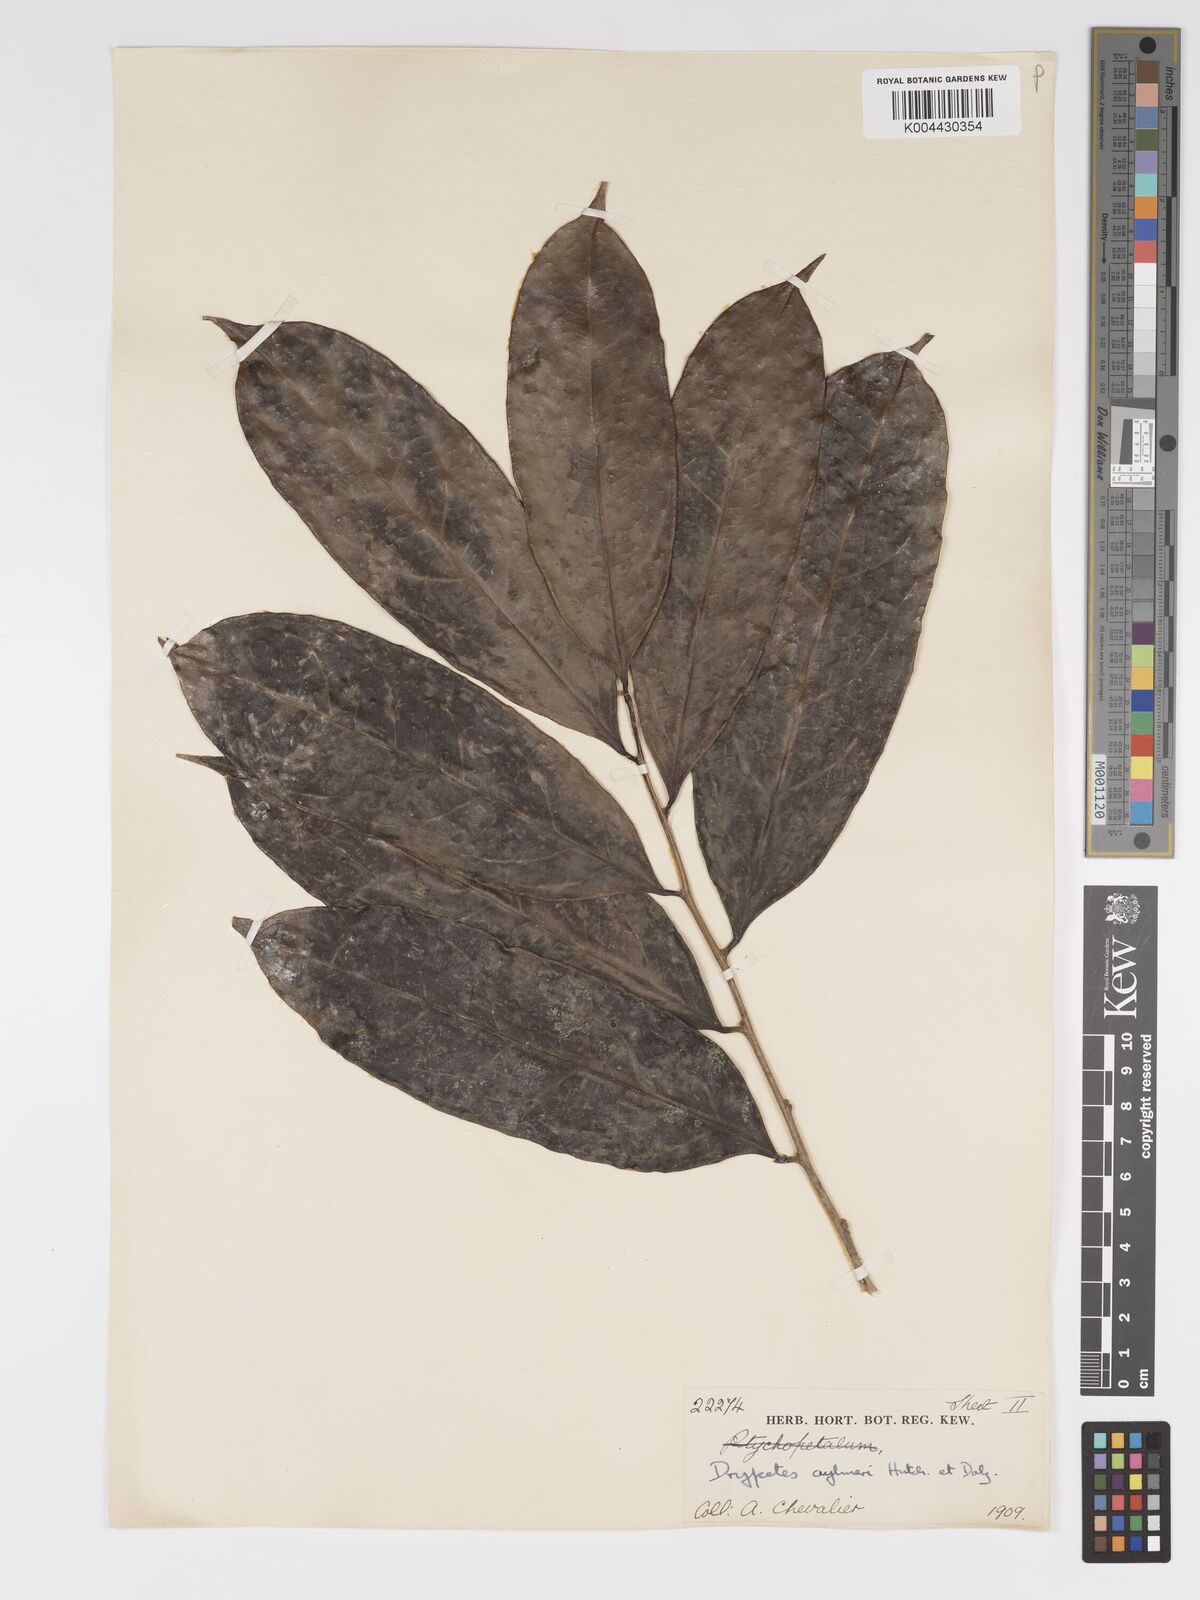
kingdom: Plantae
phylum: Tracheophyta
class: Magnoliopsida
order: Malpighiales
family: Putranjivaceae
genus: Drypetes
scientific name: Drypetes aylmeri
